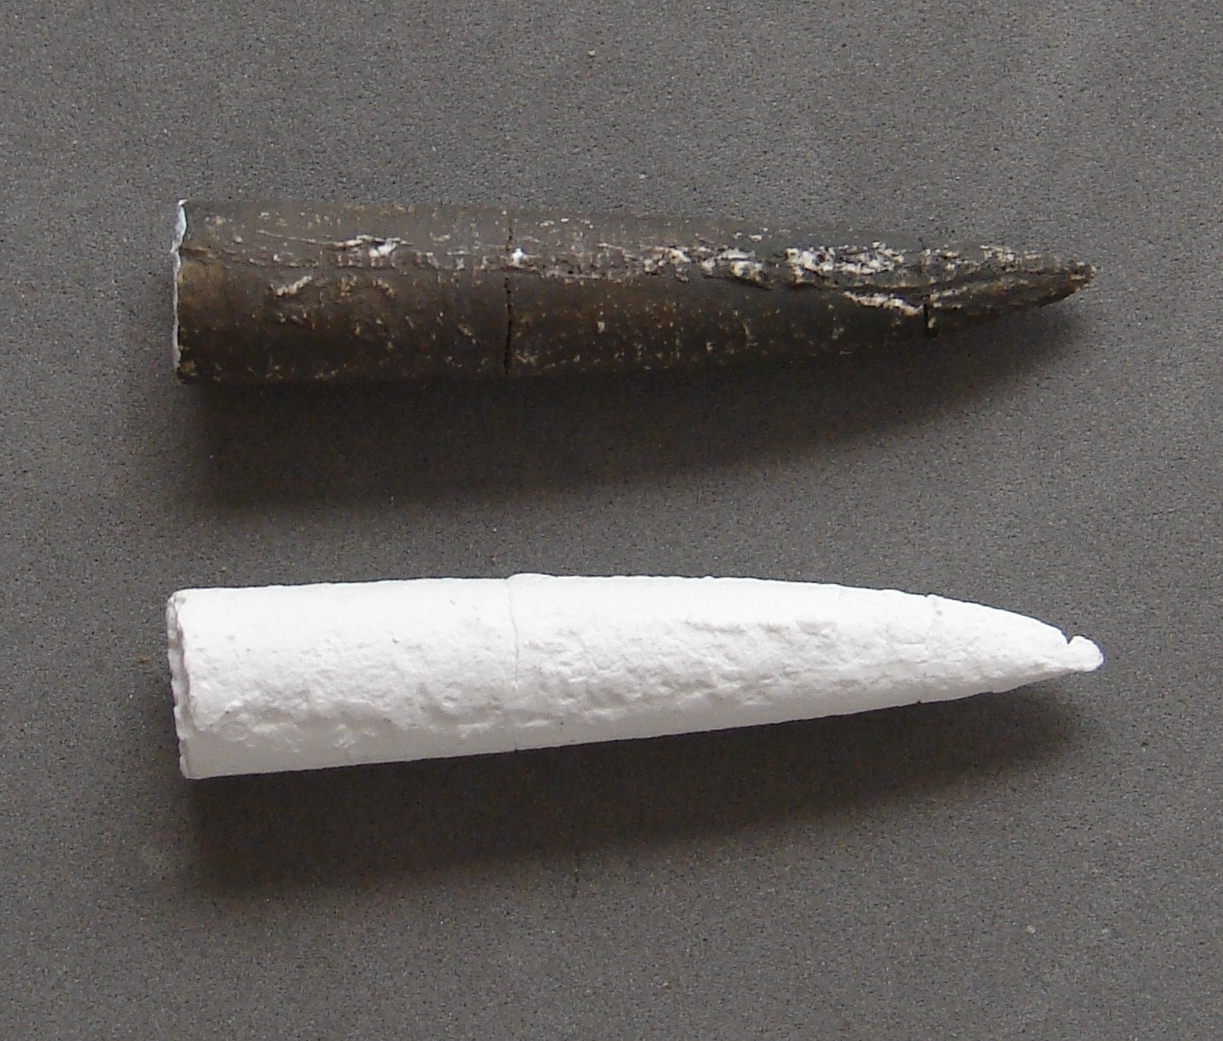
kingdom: Animalia
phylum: Mollusca
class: Cephalopoda
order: Belemnitida
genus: Holcobelus
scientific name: Holcobelus
